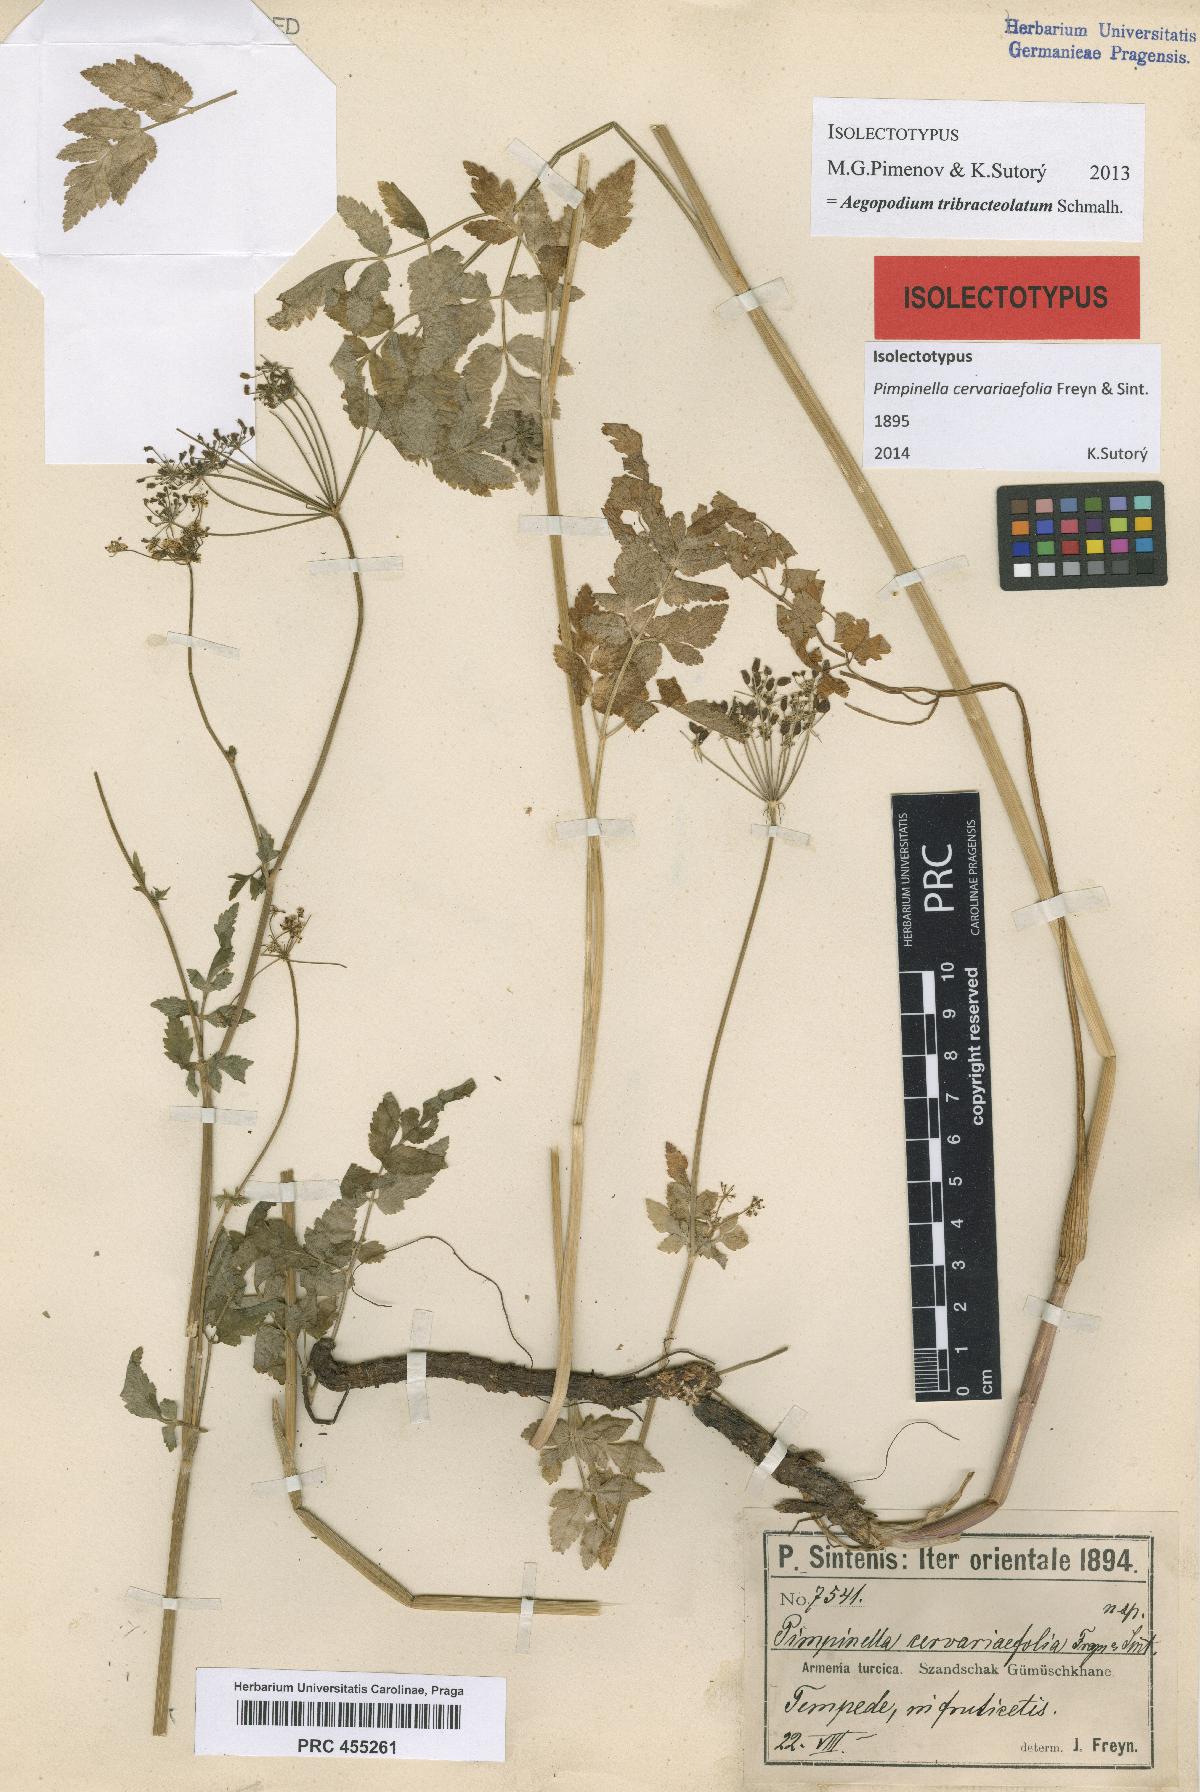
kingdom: Plantae
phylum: Tracheophyta
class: Magnoliopsida
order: Apiales
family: Apiaceae
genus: Aegopodium
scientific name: Aegopodium tribracteolatum
